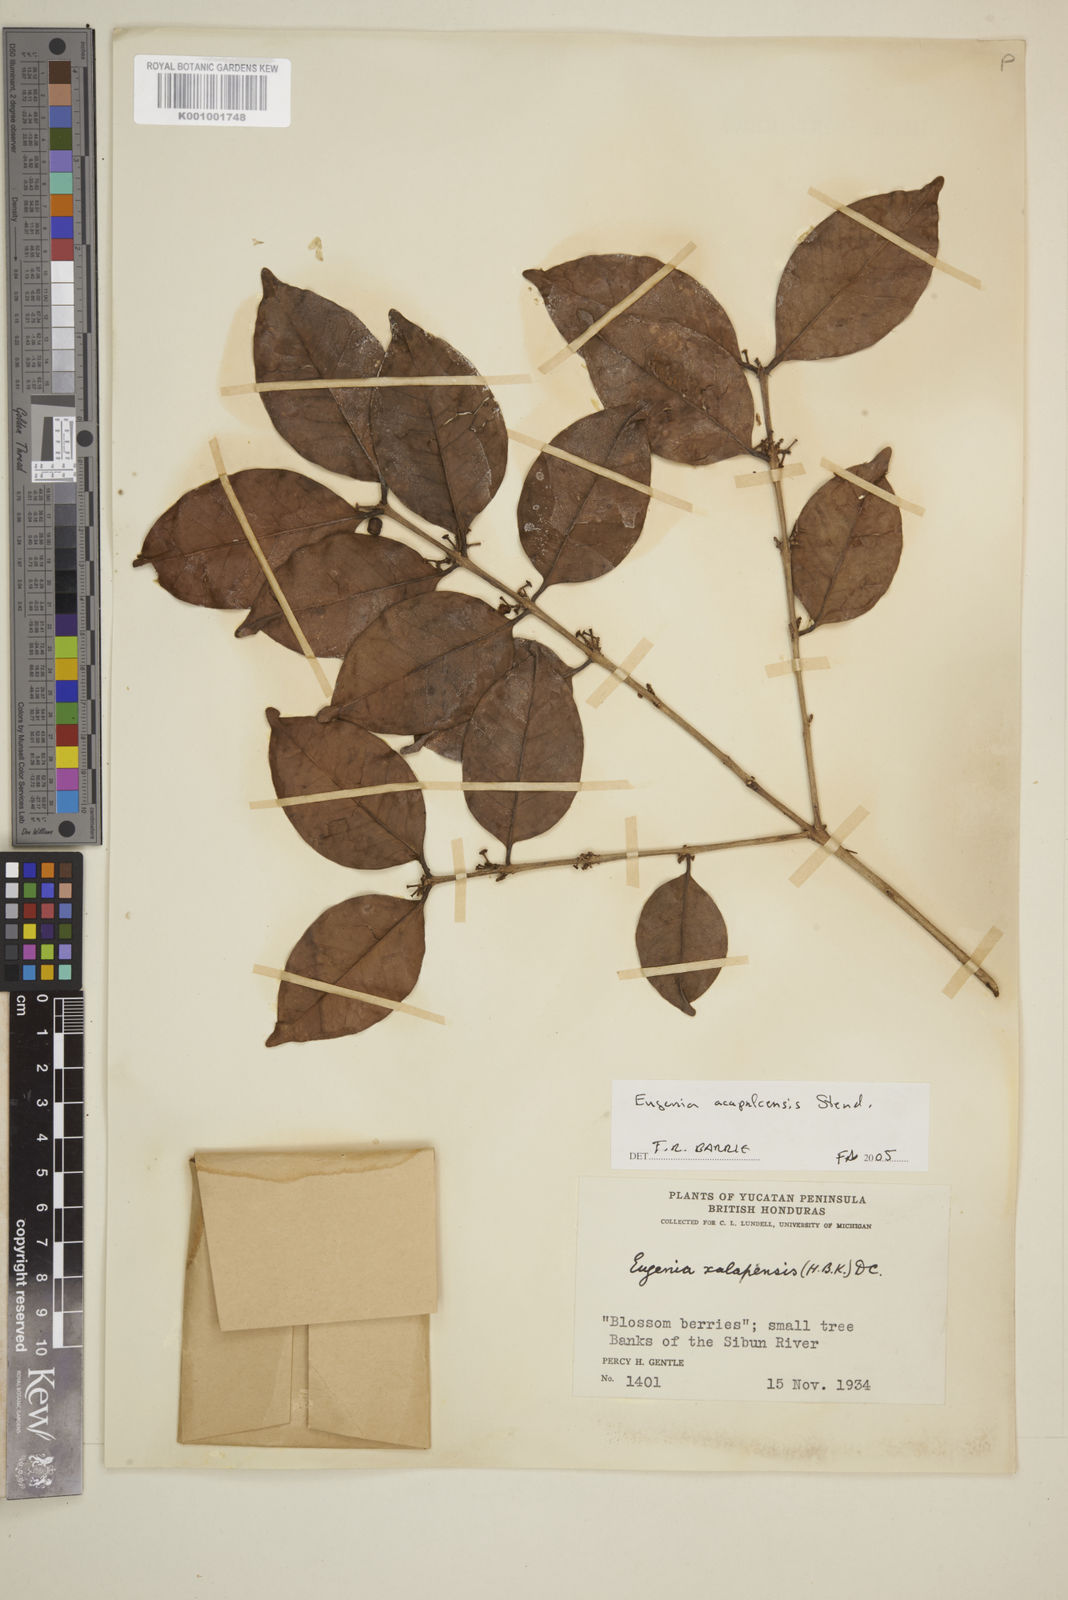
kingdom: Plantae
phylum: Tracheophyta
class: Magnoliopsida
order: Myrtales
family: Myrtaceae
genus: Eugenia
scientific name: Eugenia acapulcensis
